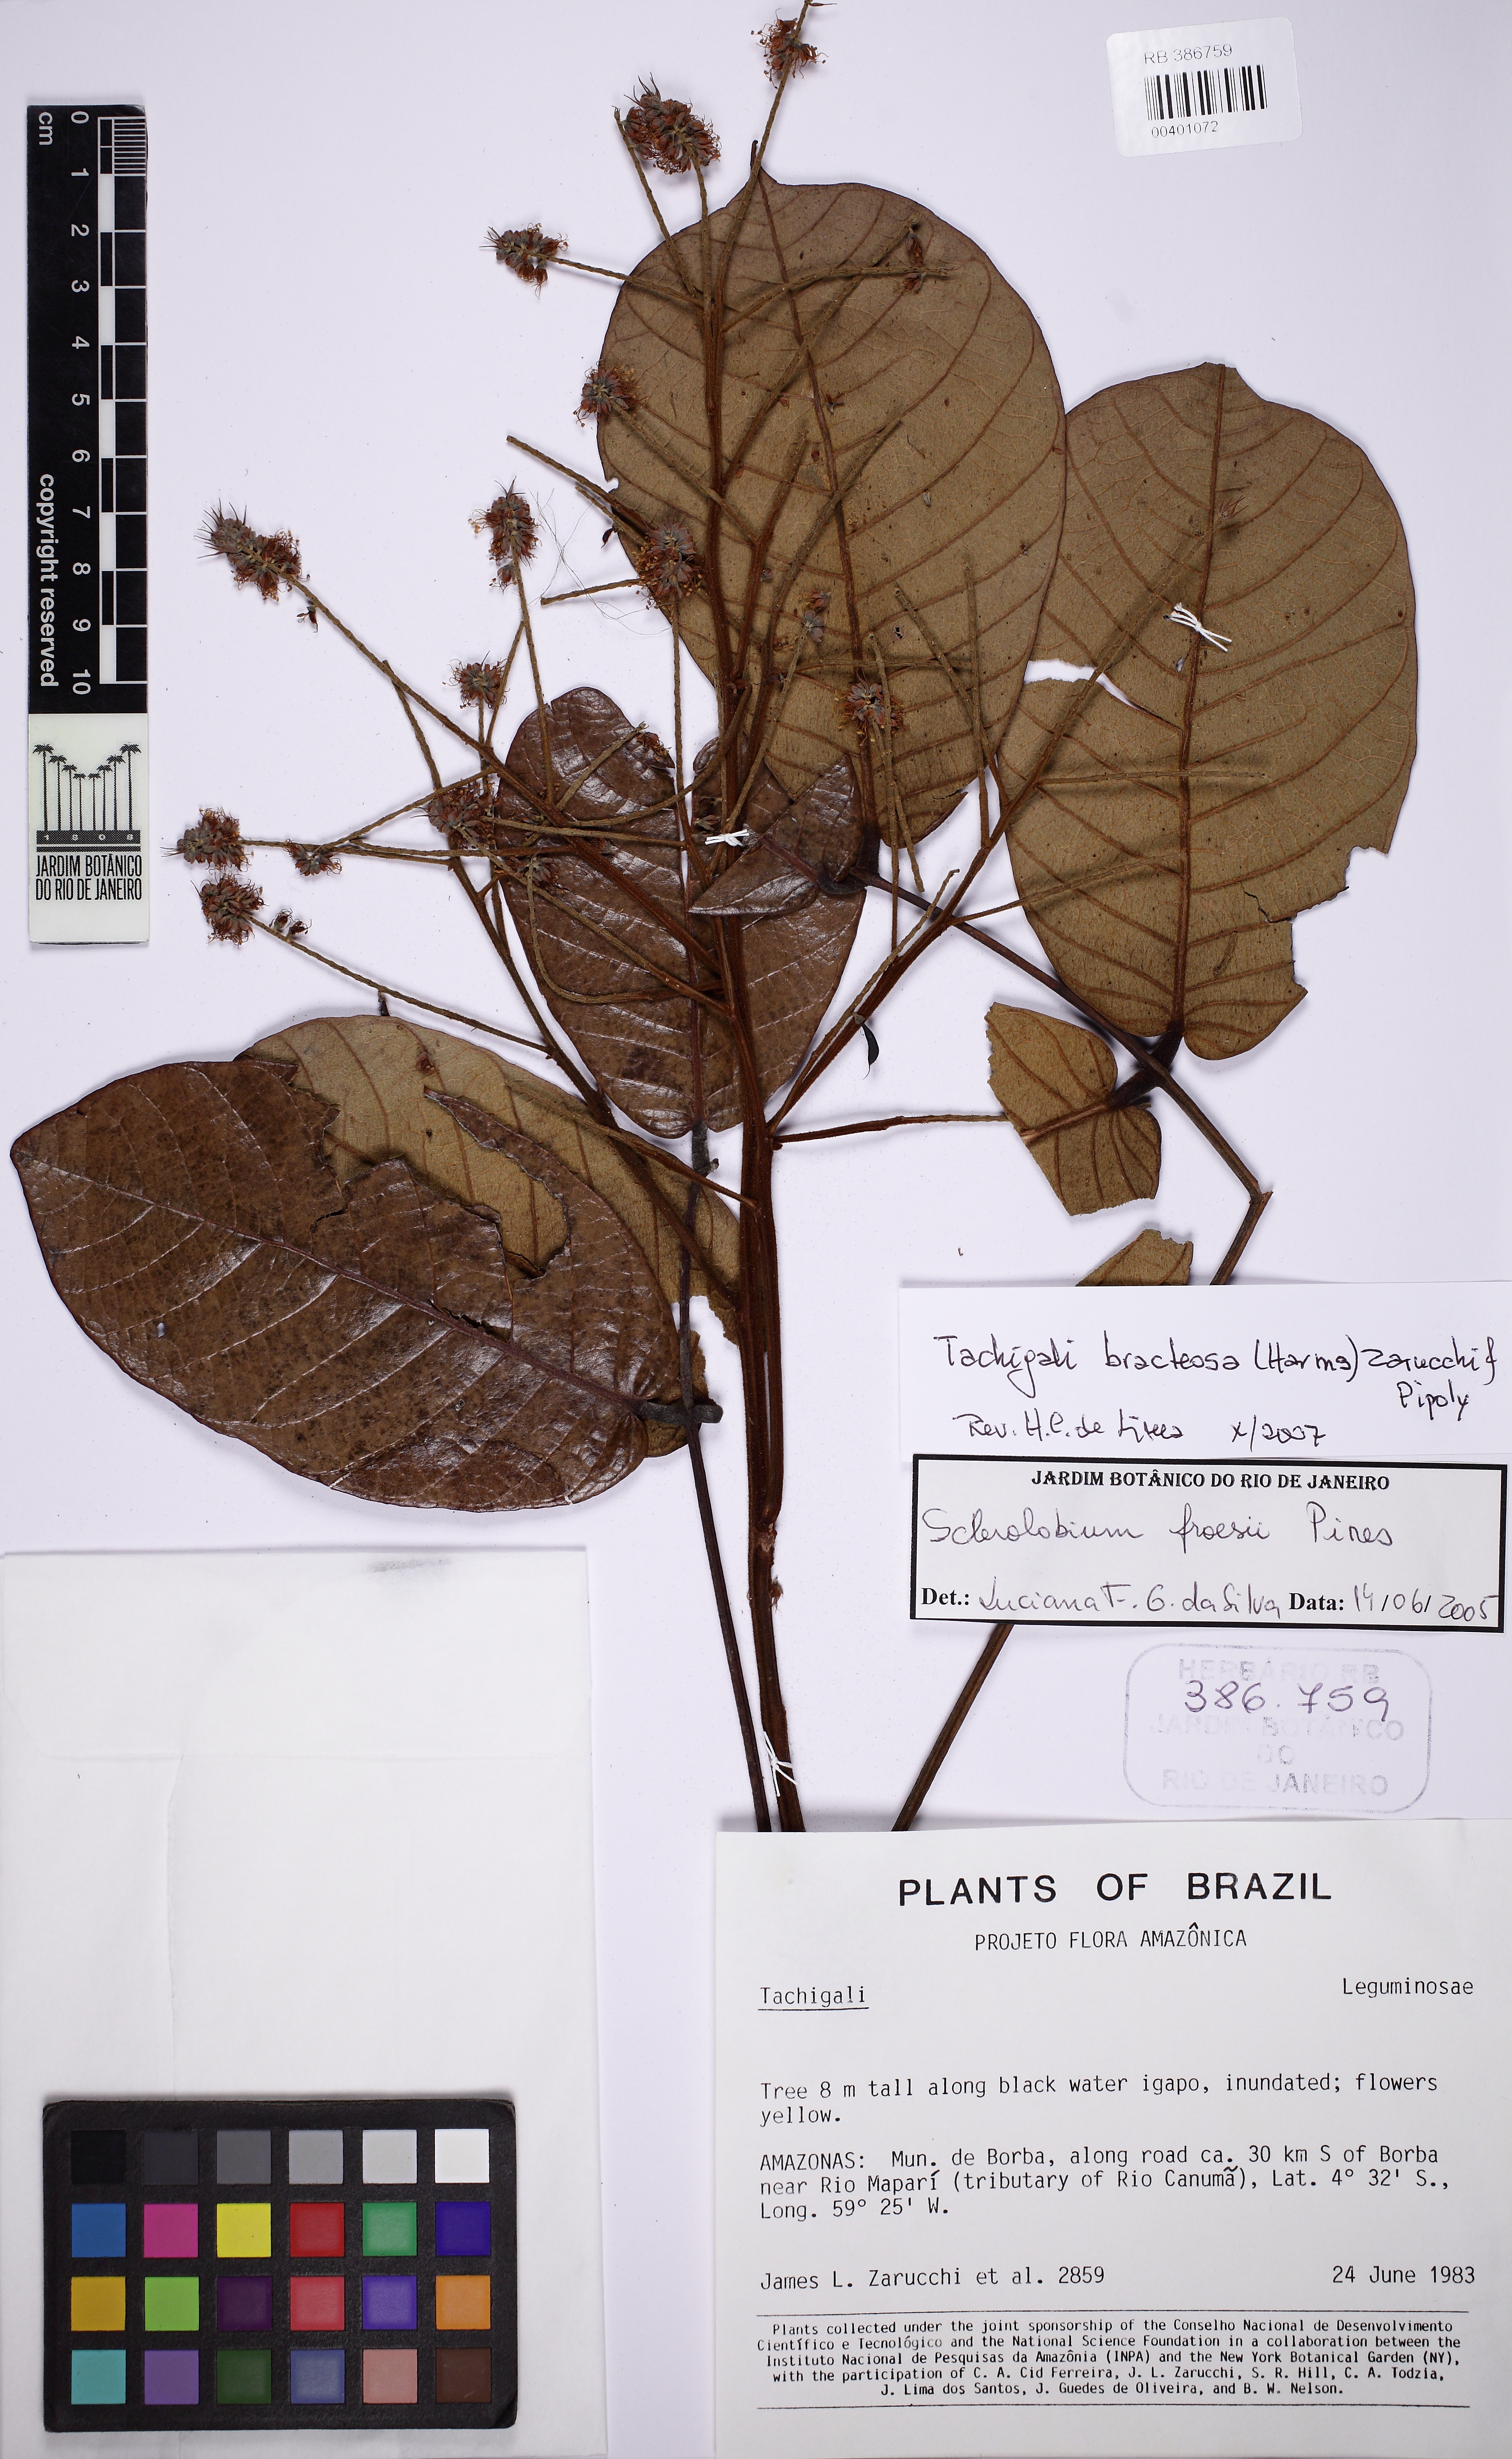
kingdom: Plantae
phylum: Tracheophyta
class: Magnoliopsida
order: Fabales
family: Fabaceae
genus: Tachigali
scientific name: Tachigali bracteosa
